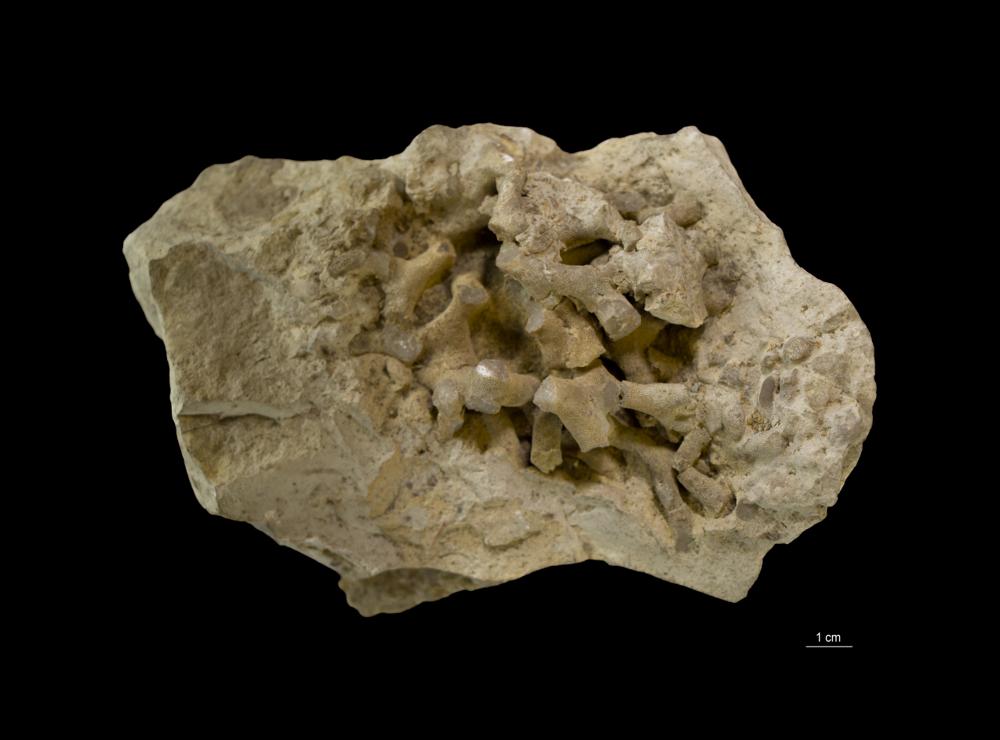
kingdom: Animalia
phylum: Bryozoa
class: Stenolaemata
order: Trepostomatida
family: Halloporidae
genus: Parvohallopora
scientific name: Parvohallopora wesenbergiana
